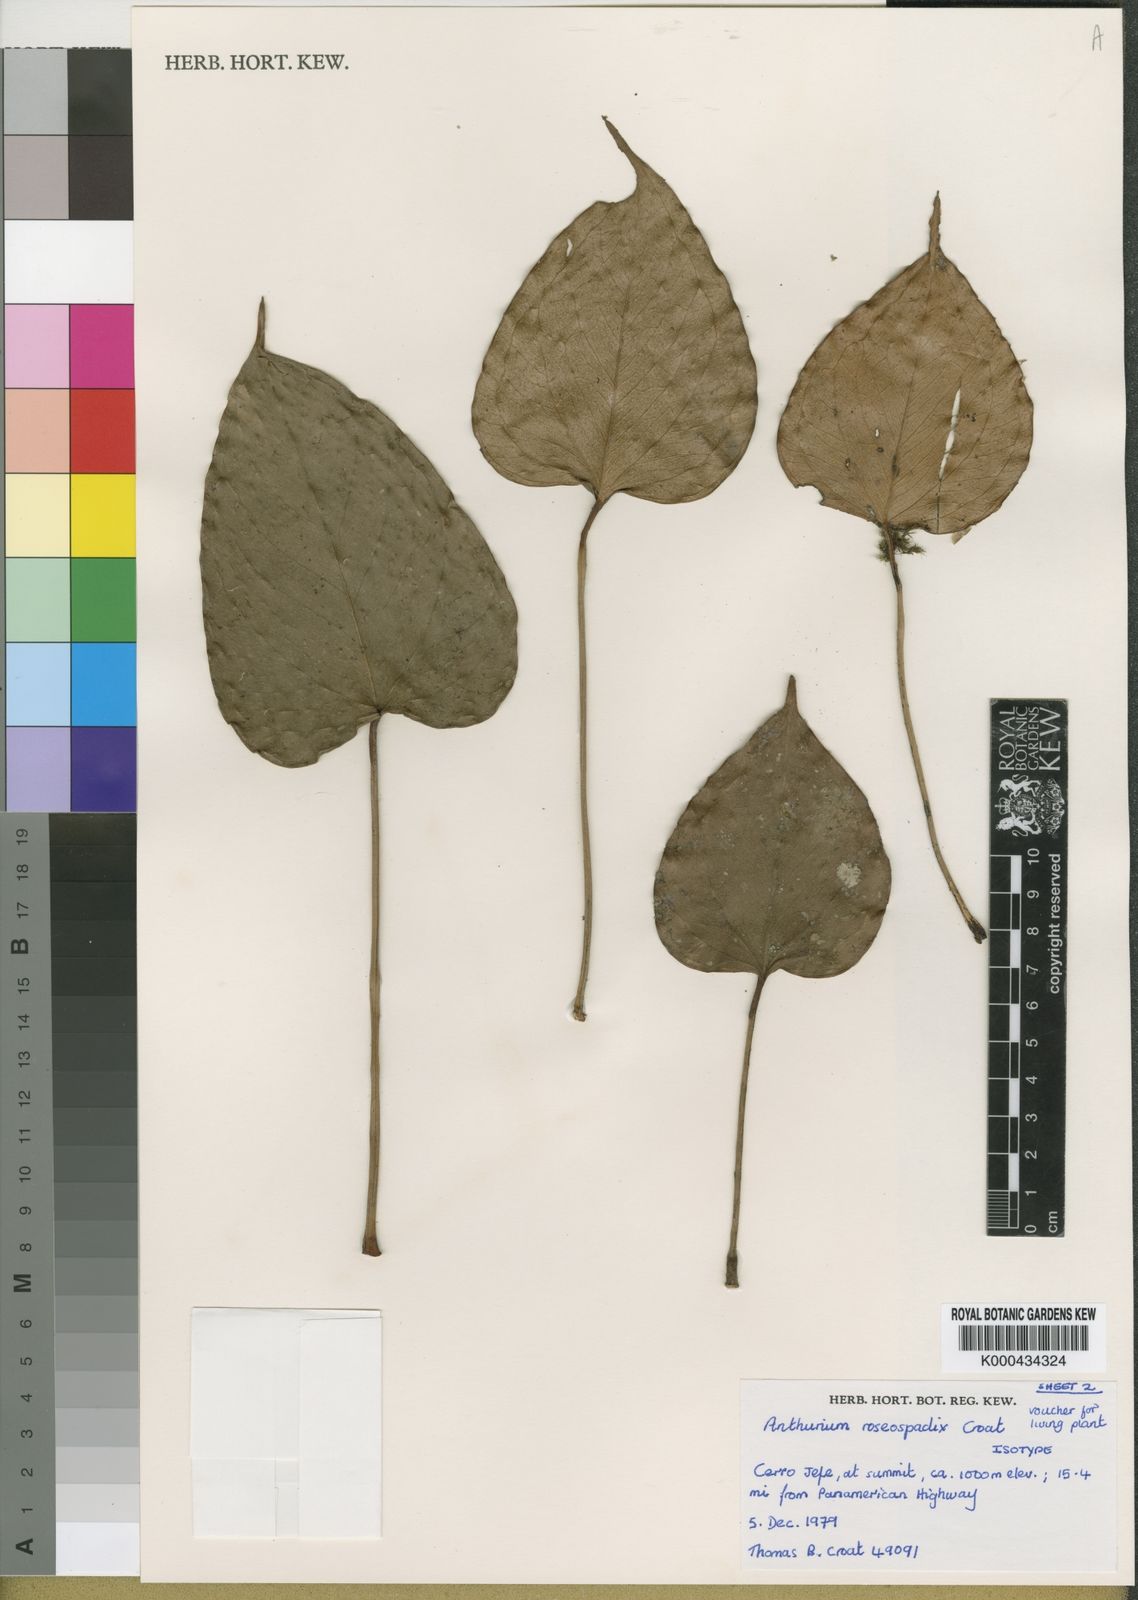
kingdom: Plantae
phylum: Tracheophyta
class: Liliopsida
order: Alismatales
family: Araceae
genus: Anthurium
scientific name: Anthurium roseospadix
